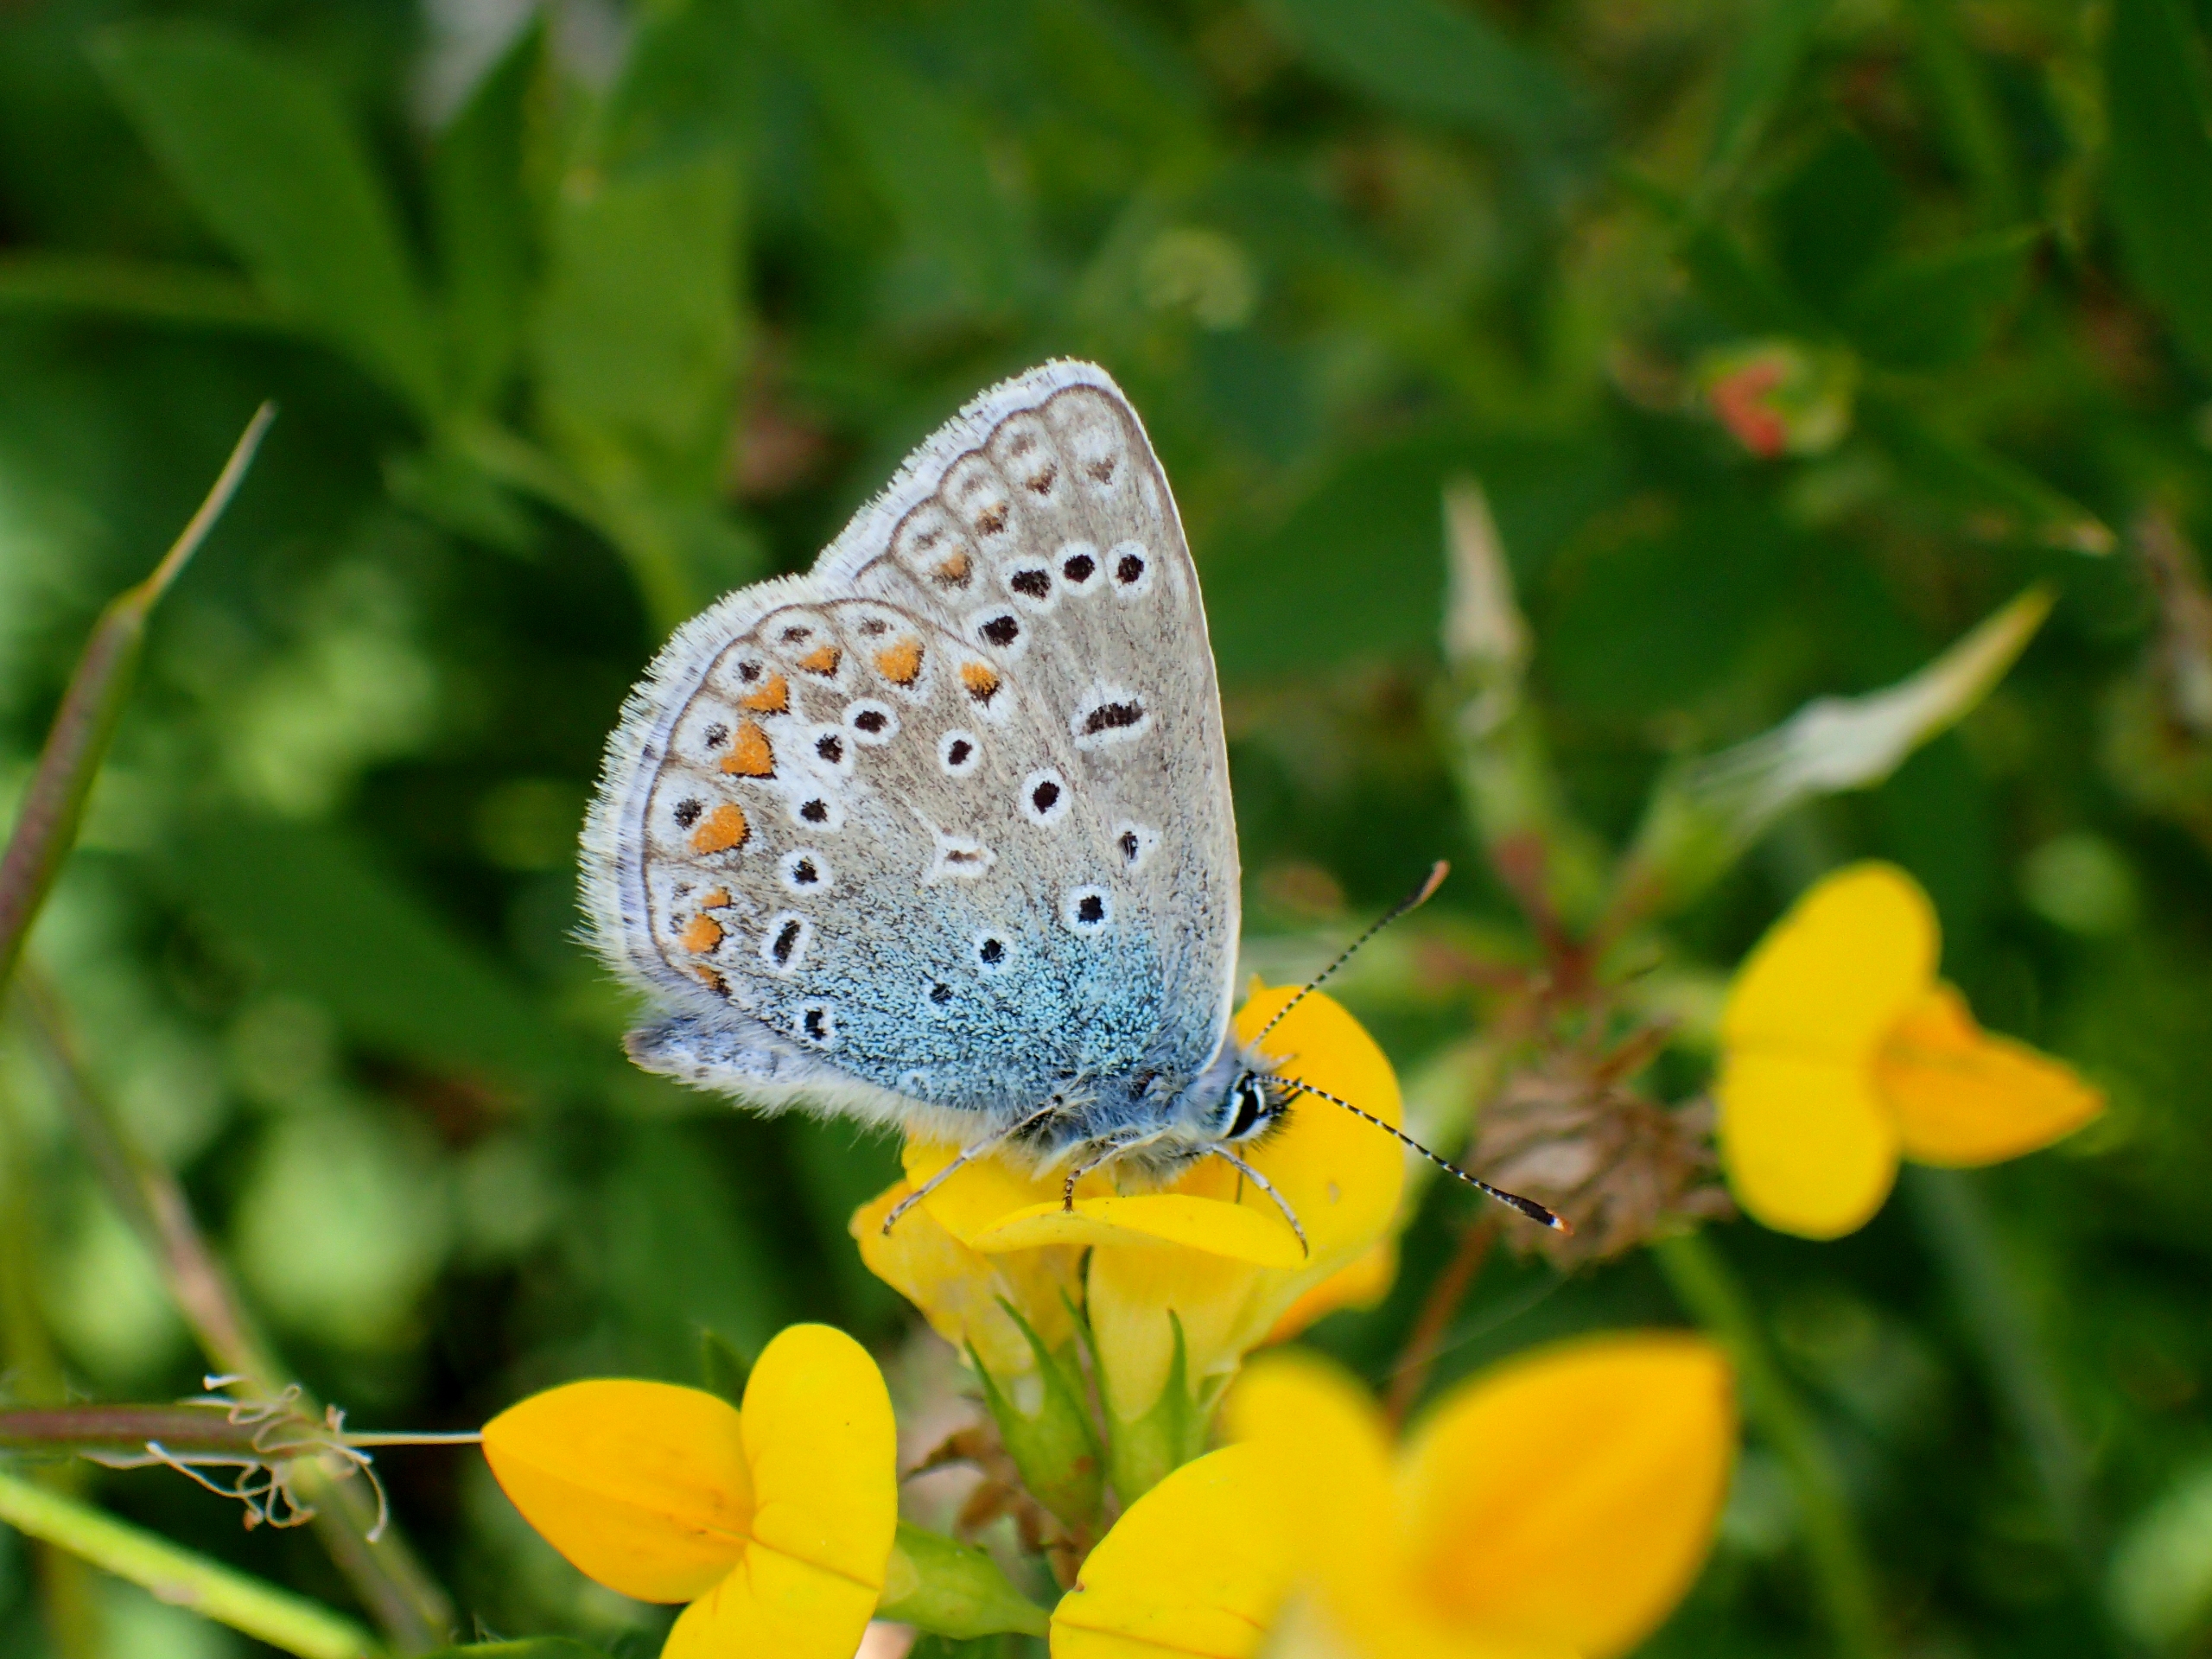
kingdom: Animalia
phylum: Arthropoda
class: Insecta
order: Lepidoptera
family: Lycaenidae
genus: Polyommatus
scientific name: Polyommatus icarus
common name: Almindelig blåfugl
